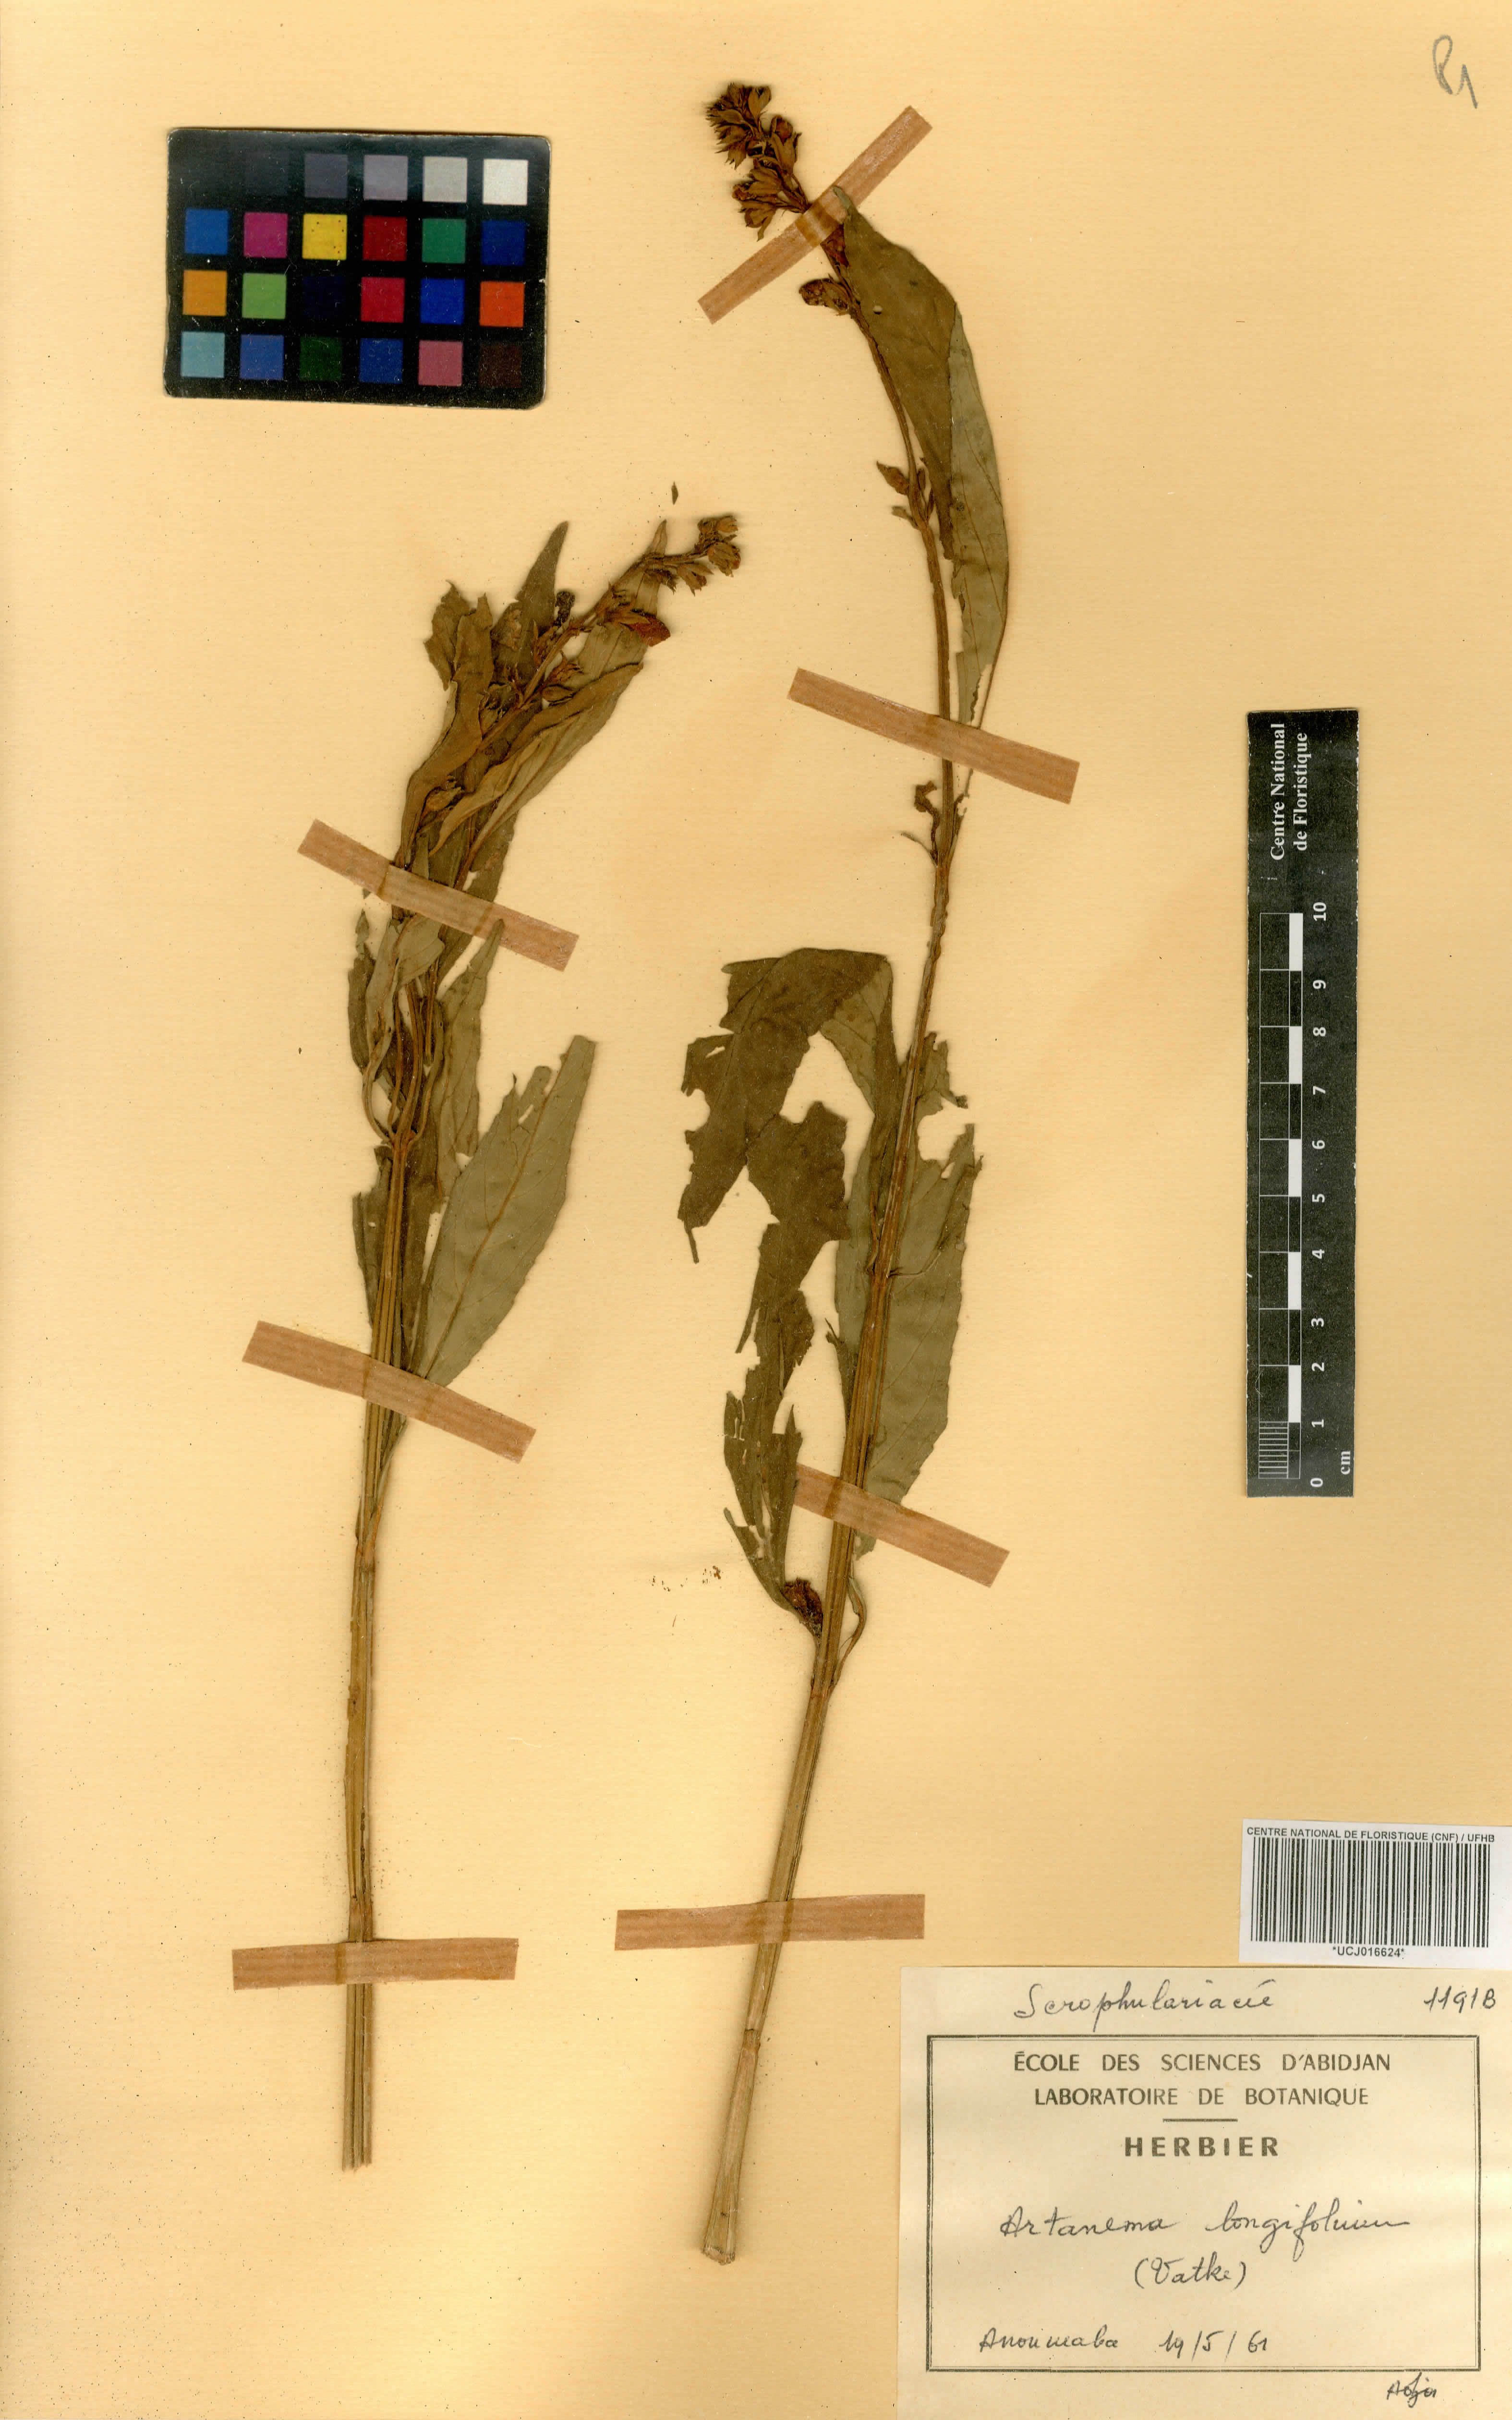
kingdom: Plantae
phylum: Tracheophyta
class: Magnoliopsida
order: Lamiales
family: Linderniaceae
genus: Artanema
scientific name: Artanema longifolium
